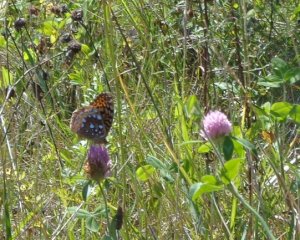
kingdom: Animalia
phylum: Arthropoda
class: Insecta
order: Lepidoptera
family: Nymphalidae
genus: Speyeria
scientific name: Speyeria cybele
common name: Great Spangled Fritillary
